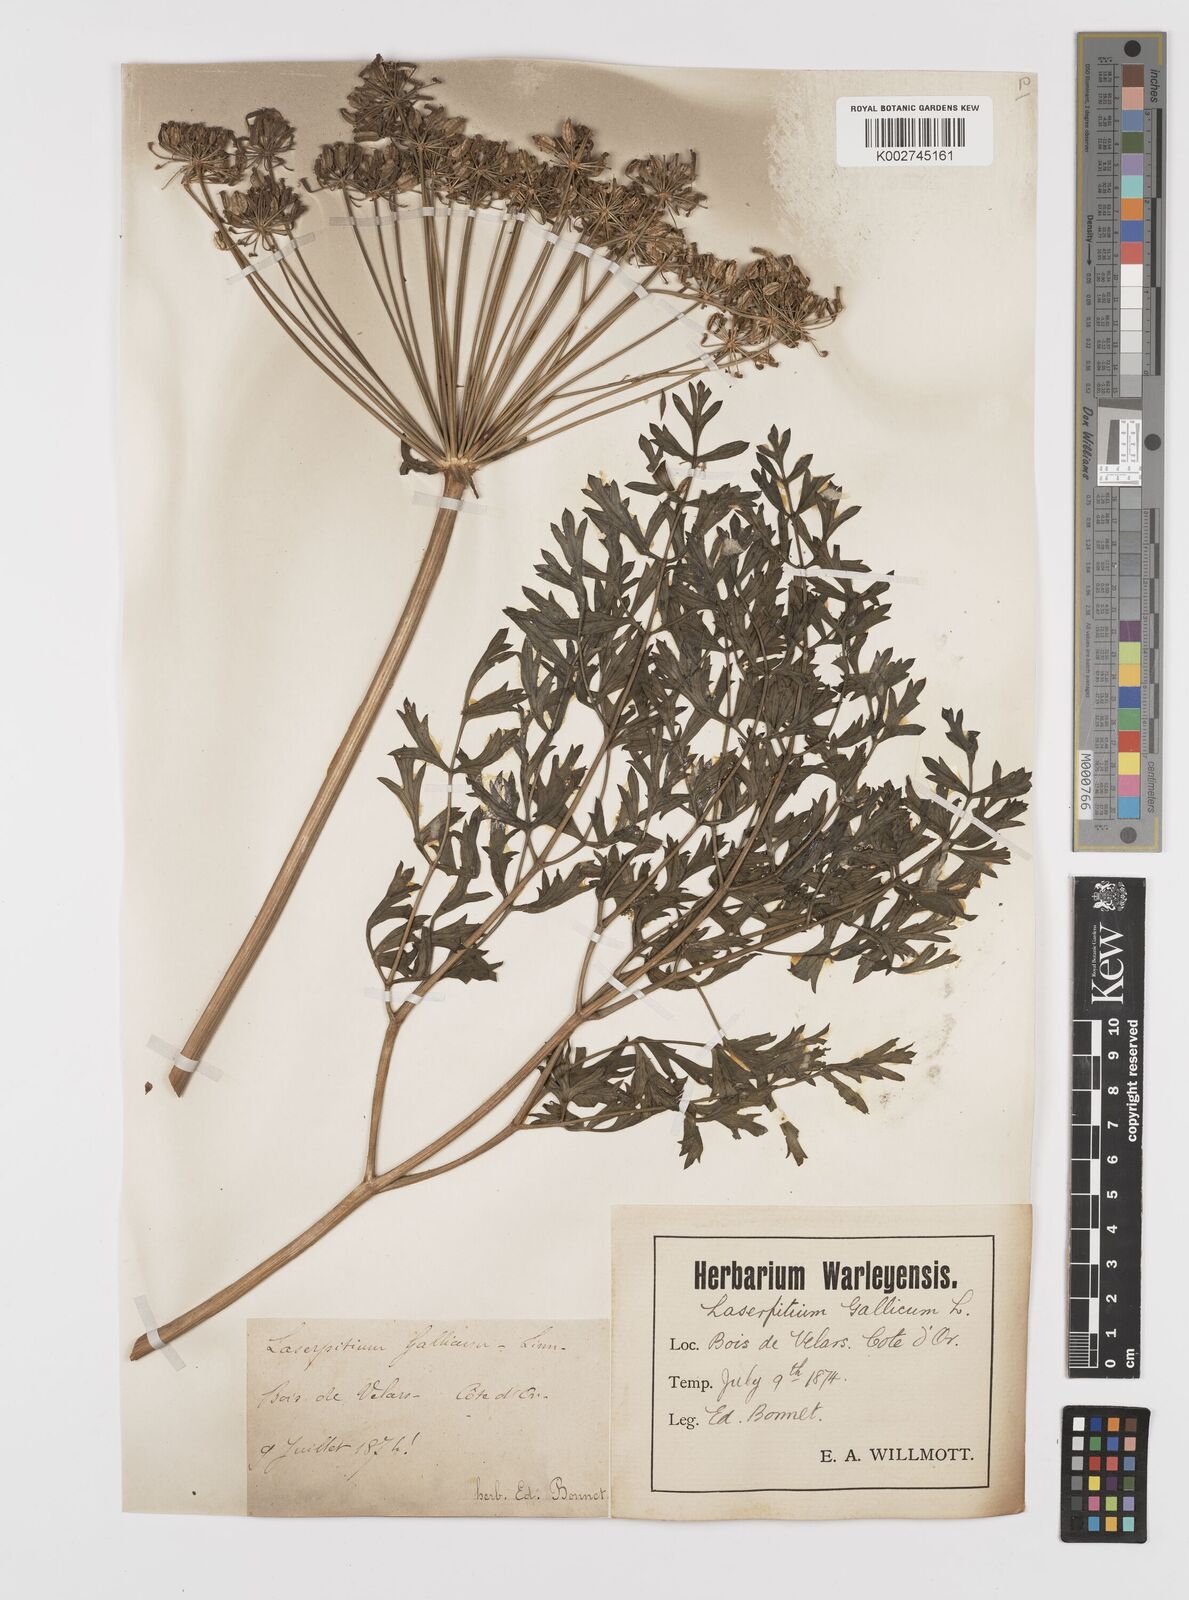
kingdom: Plantae
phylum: Tracheophyta
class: Magnoliopsida
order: Apiales
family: Apiaceae
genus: Laserpitium
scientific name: Laserpitium gallicum
